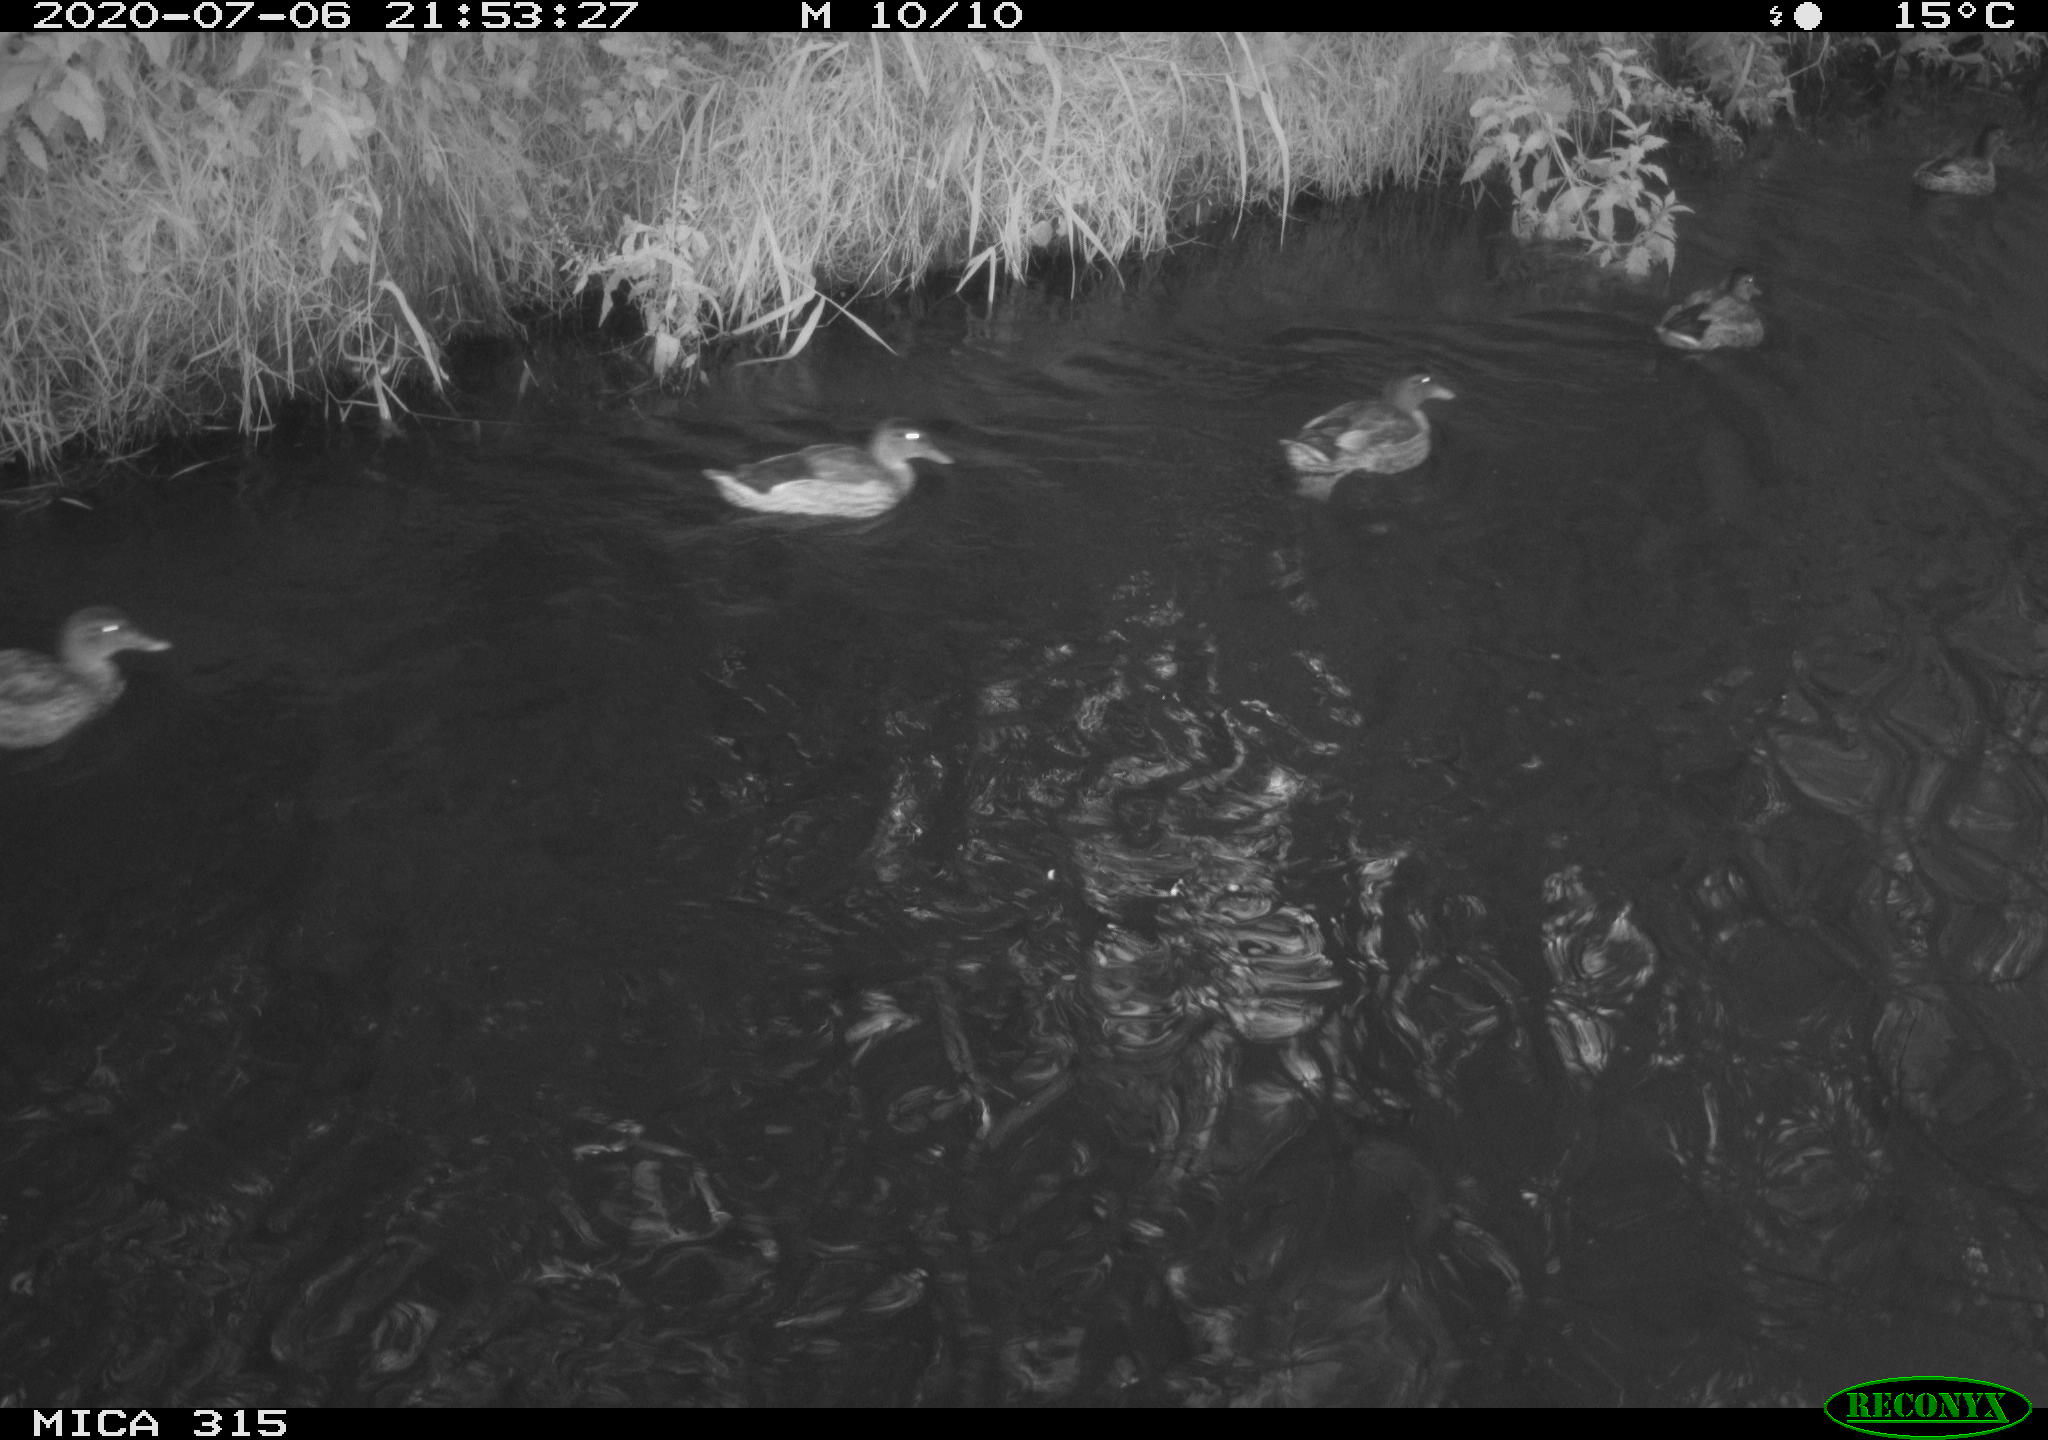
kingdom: Animalia
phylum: Chordata
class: Aves
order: Anseriformes
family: Anatidae
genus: Anas
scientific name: Anas platyrhynchos
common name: Mallard
